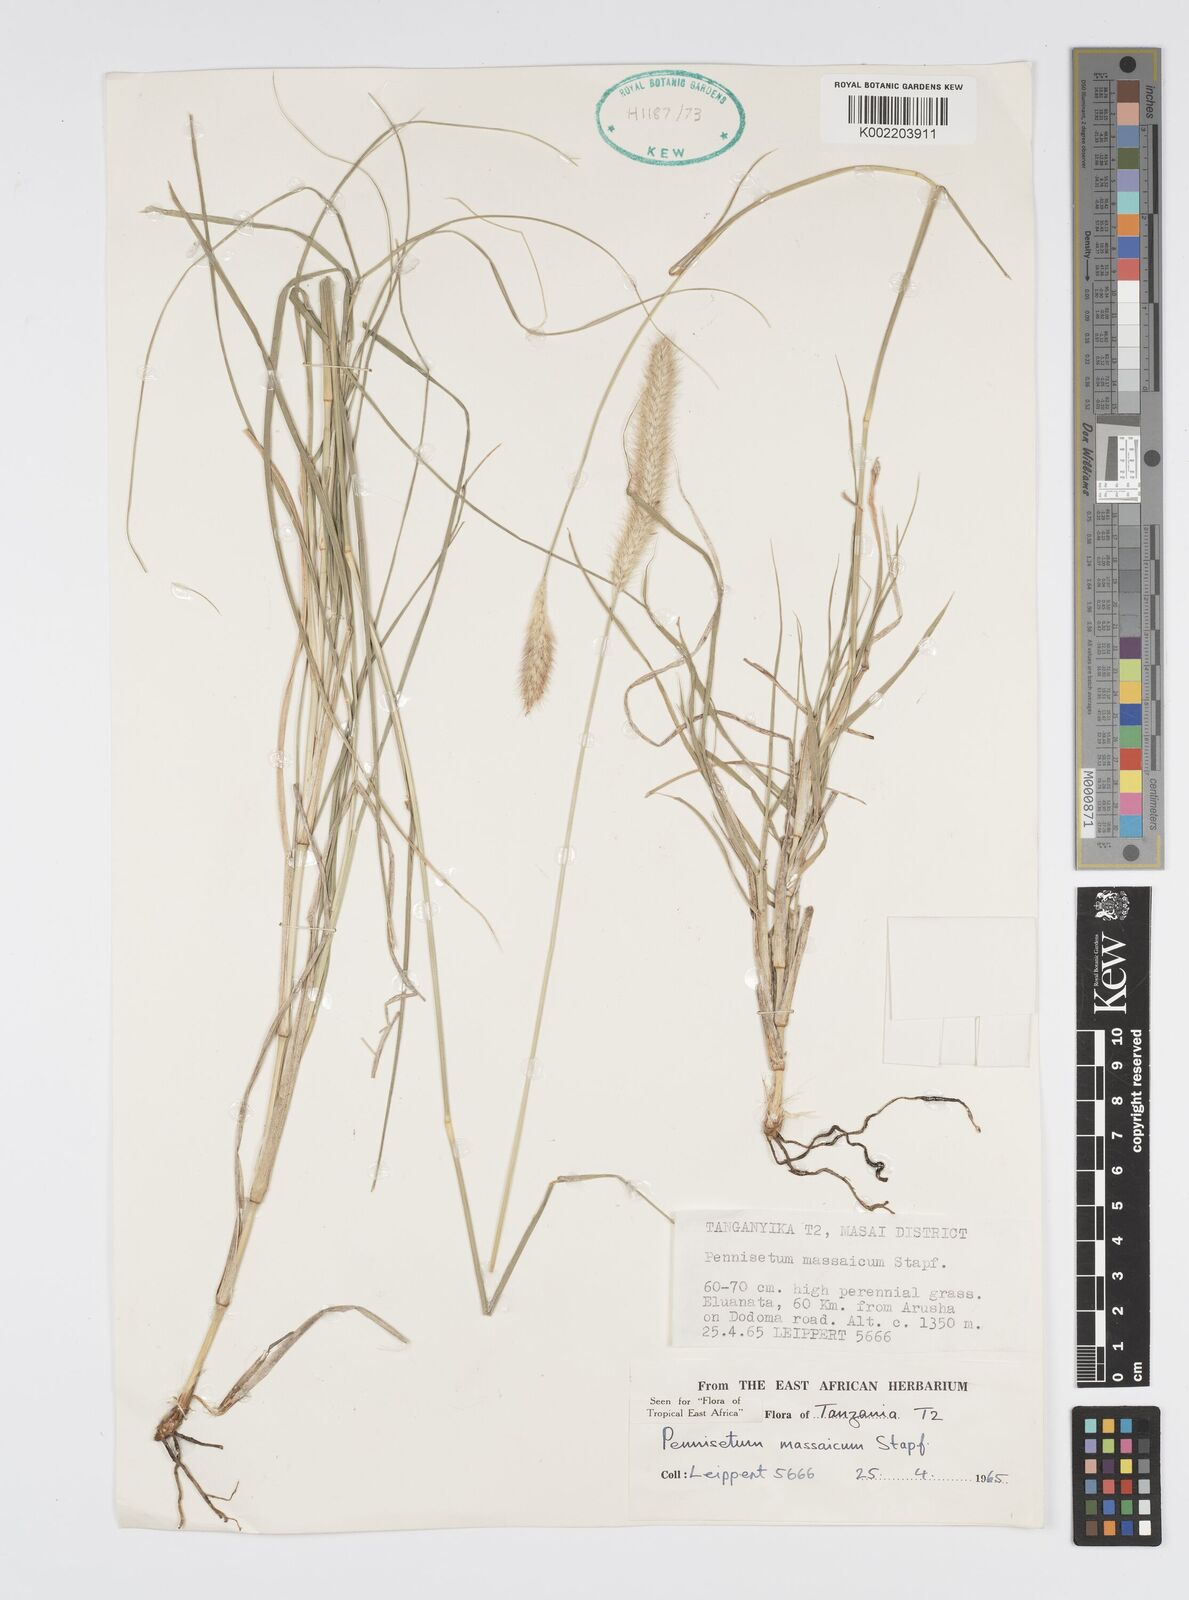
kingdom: Plantae
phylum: Tracheophyta
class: Liliopsida
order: Poales
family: Poaceae
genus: Cenchrus
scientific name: Cenchrus massaicus
